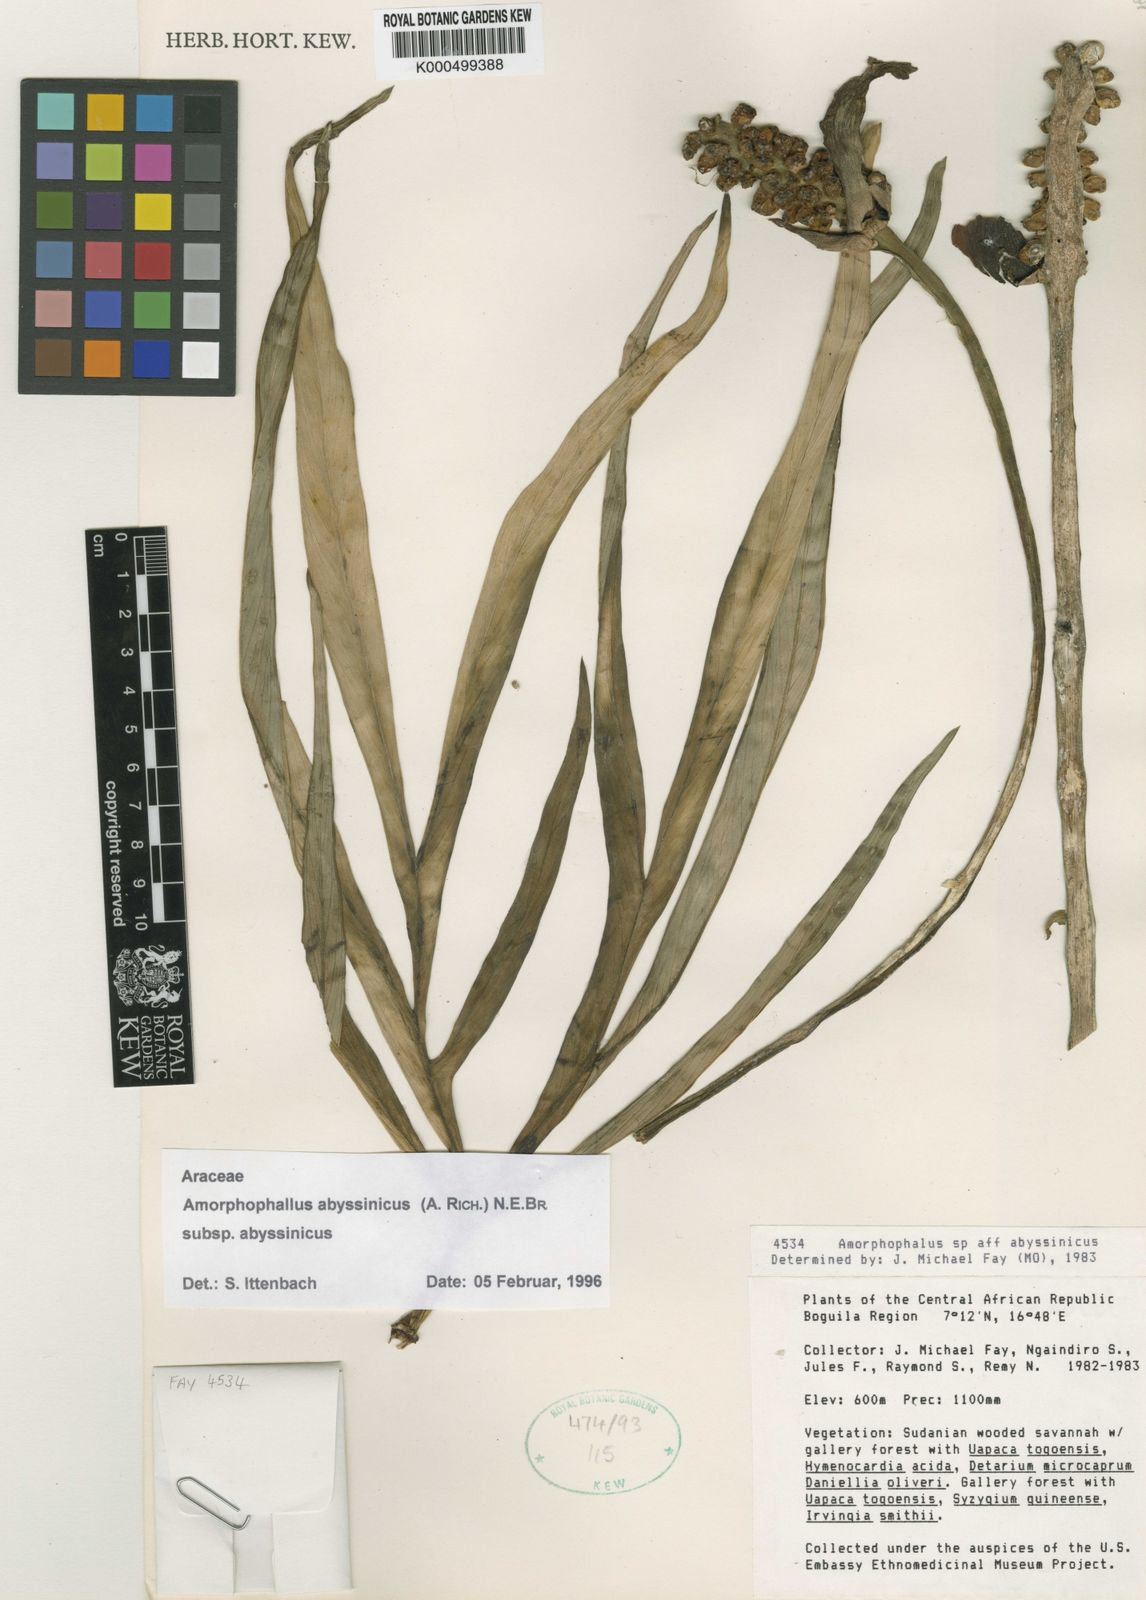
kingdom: Plantae
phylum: Tracheophyta
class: Liliopsida
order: Alismatales
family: Araceae
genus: Amorphophallus
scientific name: Amorphophallus abyssinicus
